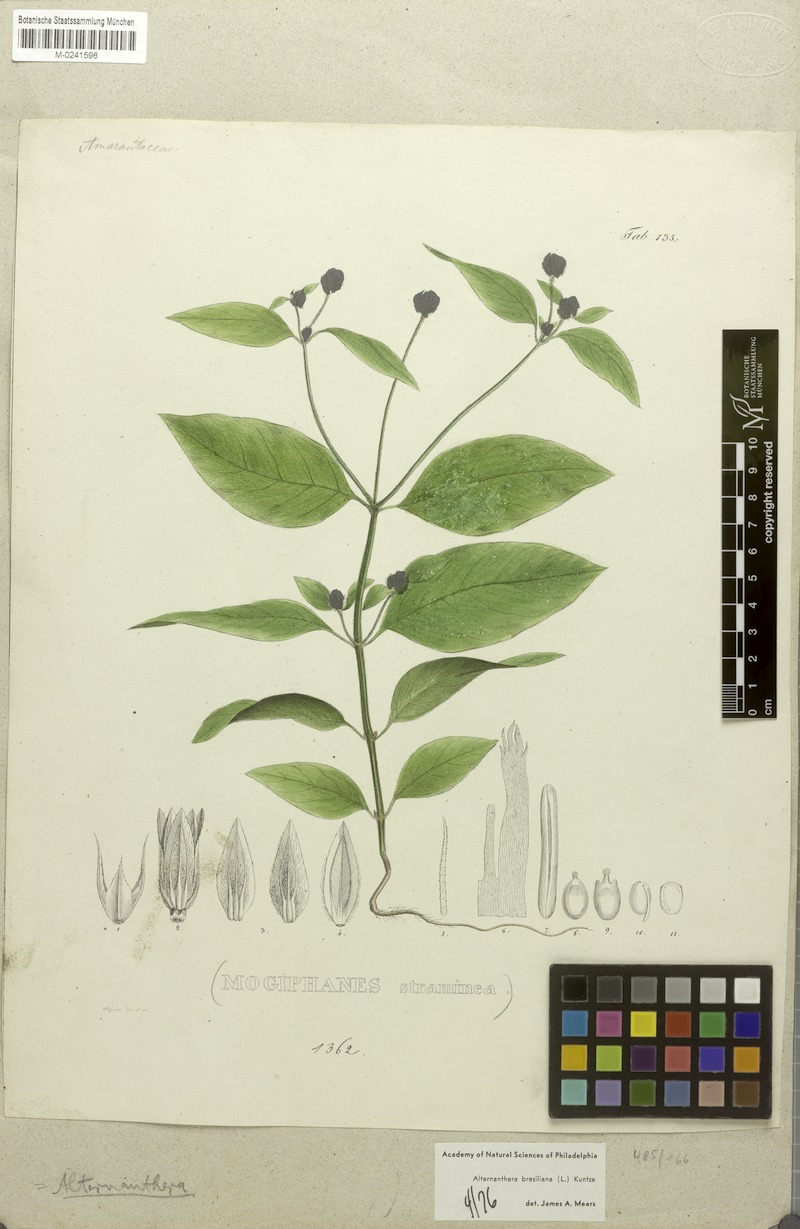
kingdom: Plantae
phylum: Tracheophyta
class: Magnoliopsida
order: Caryophyllales
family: Amaranthaceae
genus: Alternanthera
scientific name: Alternanthera brasiliana
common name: Brazilian joyweed
